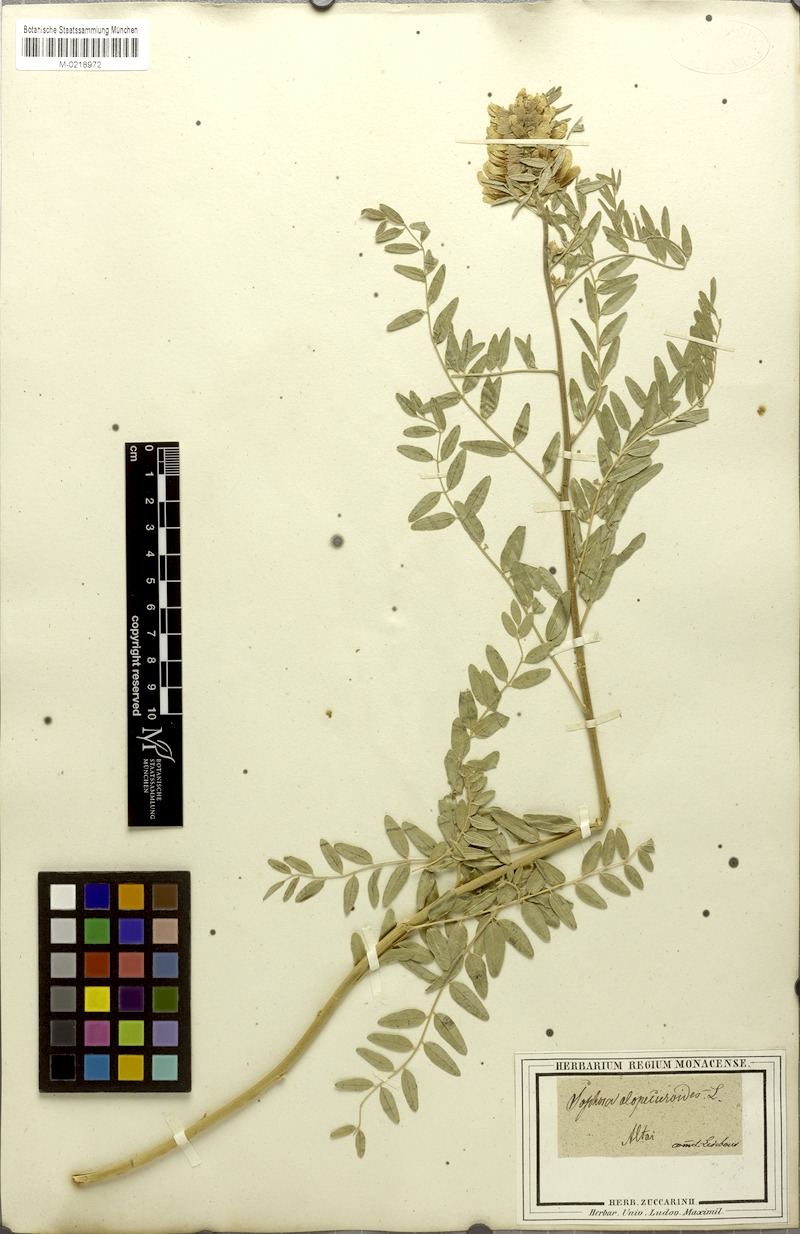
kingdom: Plantae
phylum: Tracheophyta
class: Magnoliopsida
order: Fabales
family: Fabaceae
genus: Sophora
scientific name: Sophora alopecuroides
